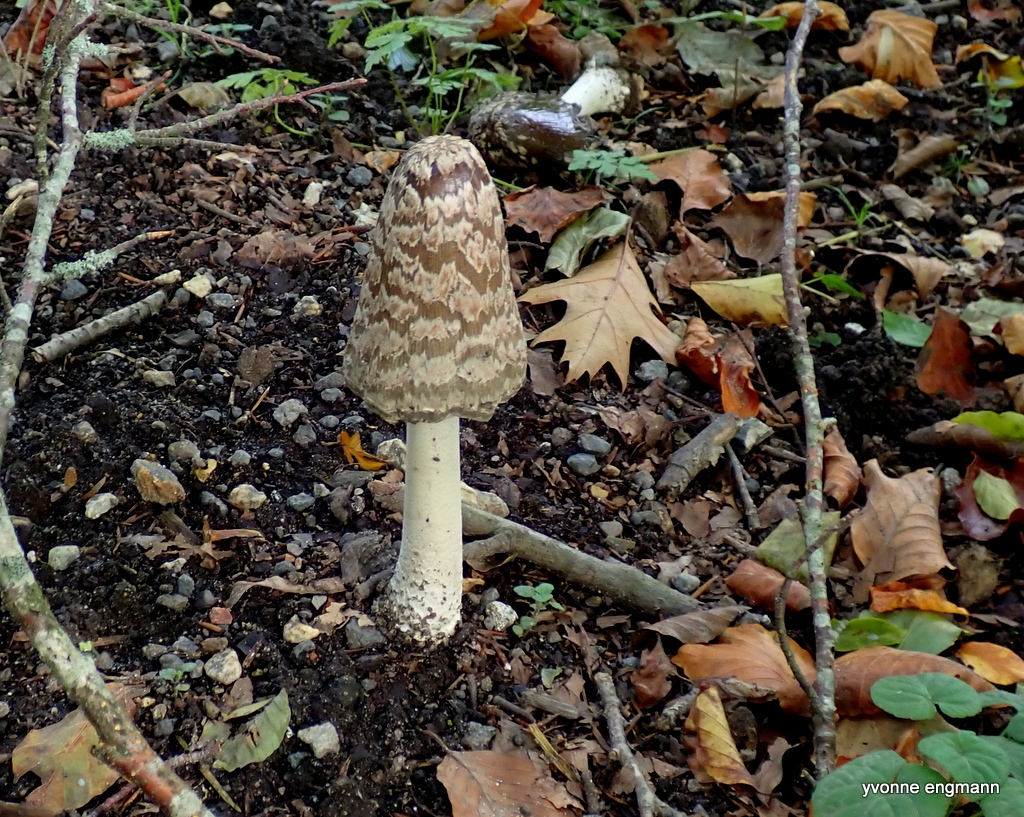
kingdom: Fungi
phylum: Basidiomycota
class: Agaricomycetes
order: Agaricales
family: Psathyrellaceae
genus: Coprinopsis
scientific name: Coprinopsis picacea
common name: skade-blækhat
